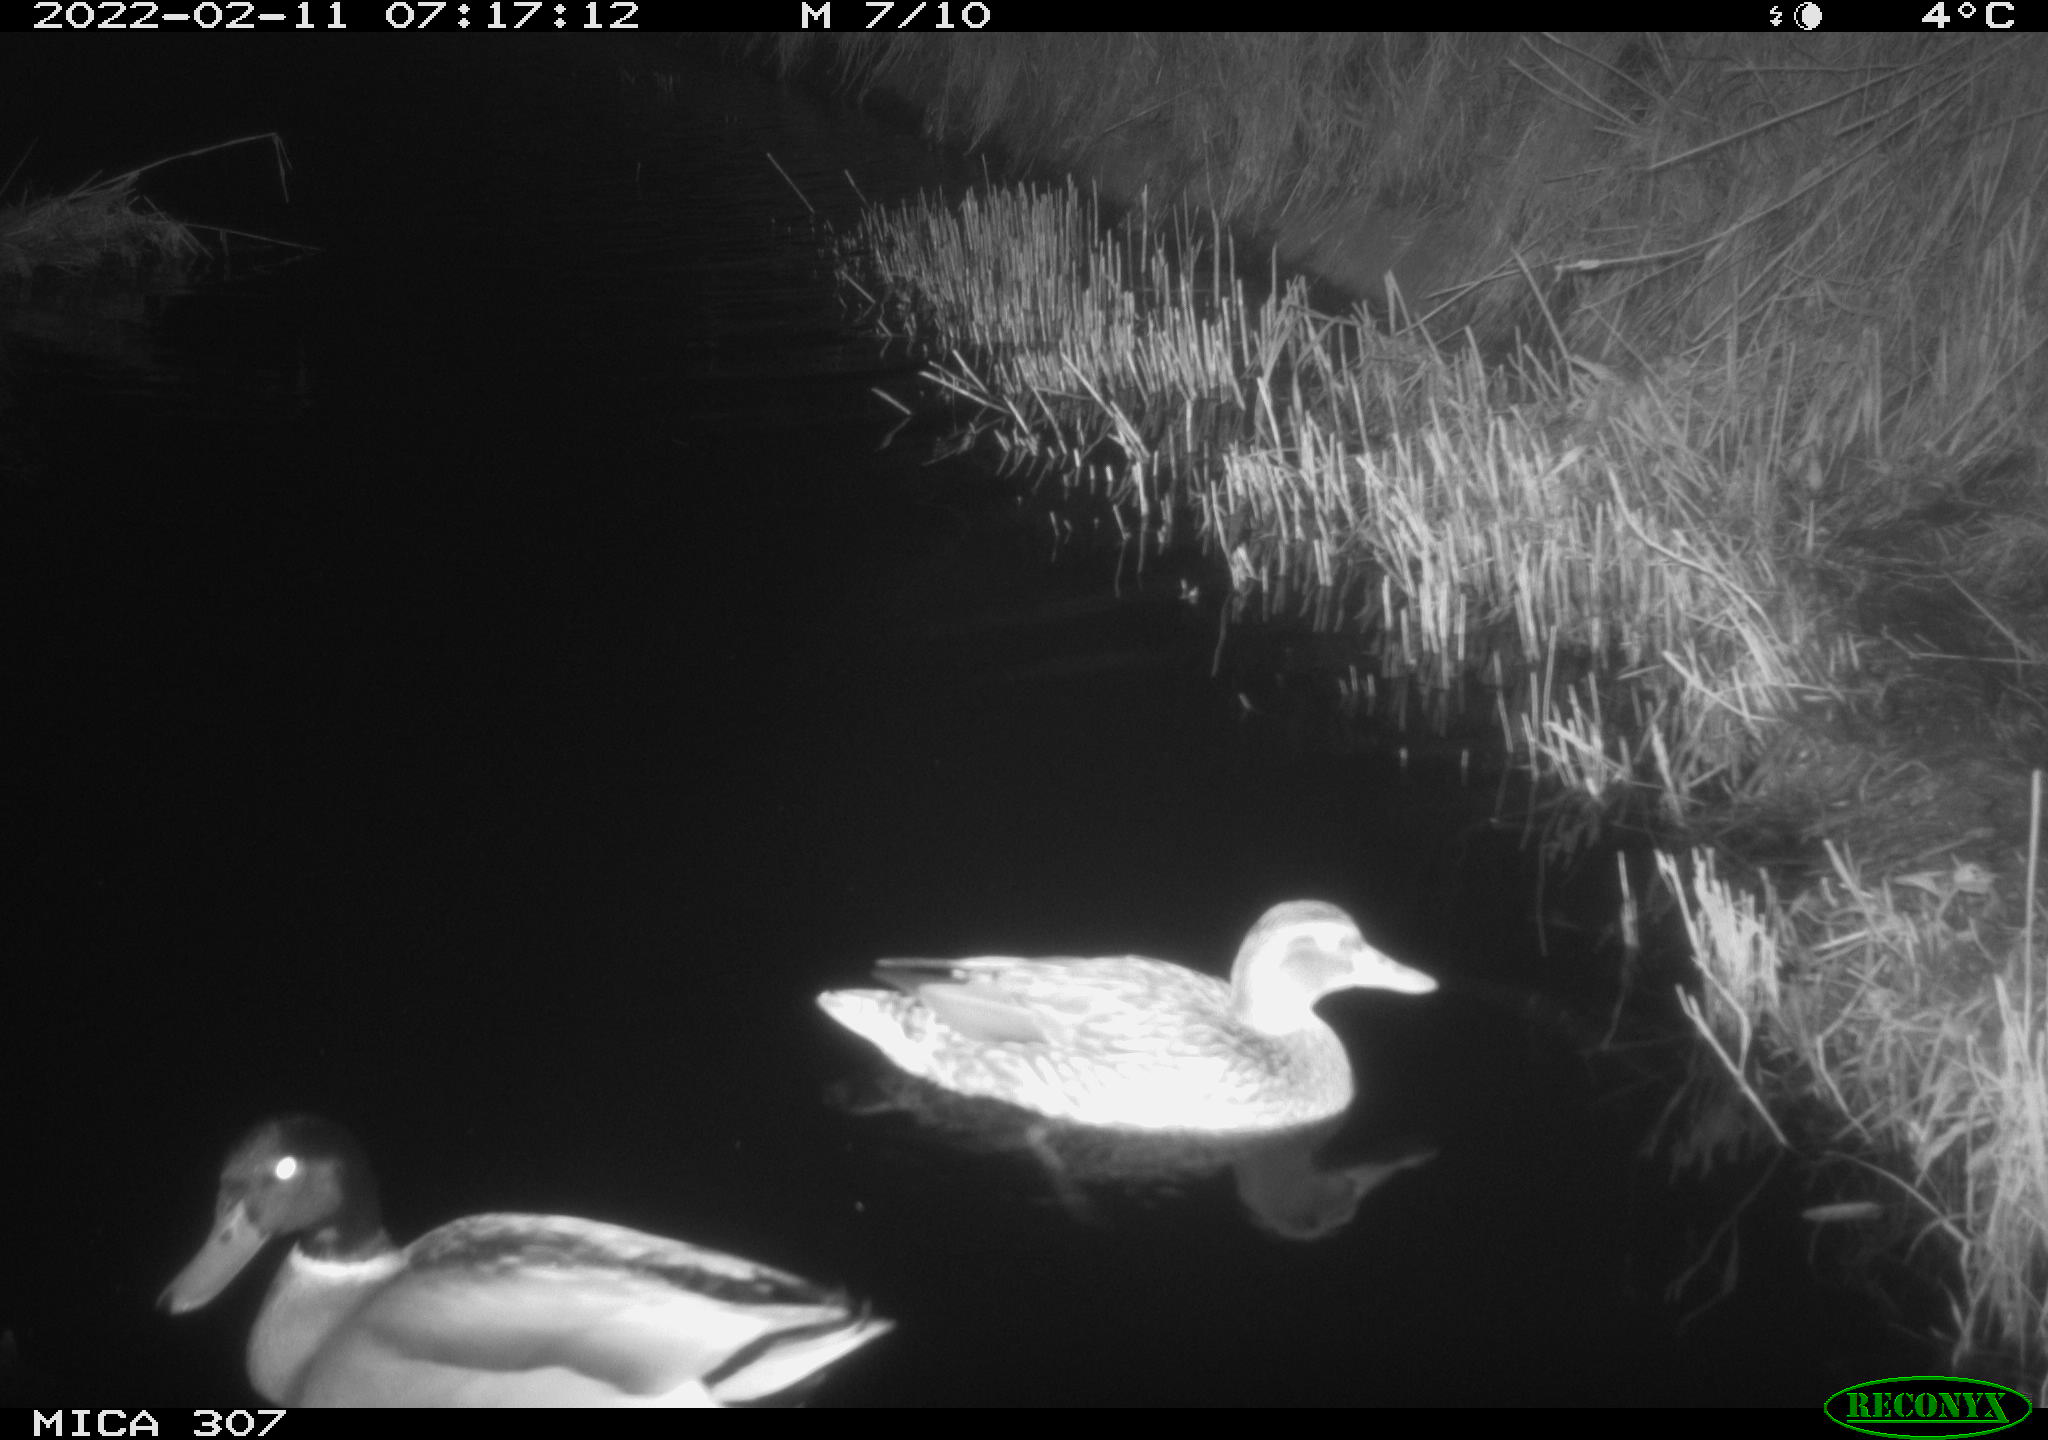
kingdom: Animalia
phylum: Chordata
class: Aves
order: Anseriformes
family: Anatidae
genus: Anas
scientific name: Anas platyrhynchos
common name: Mallard
